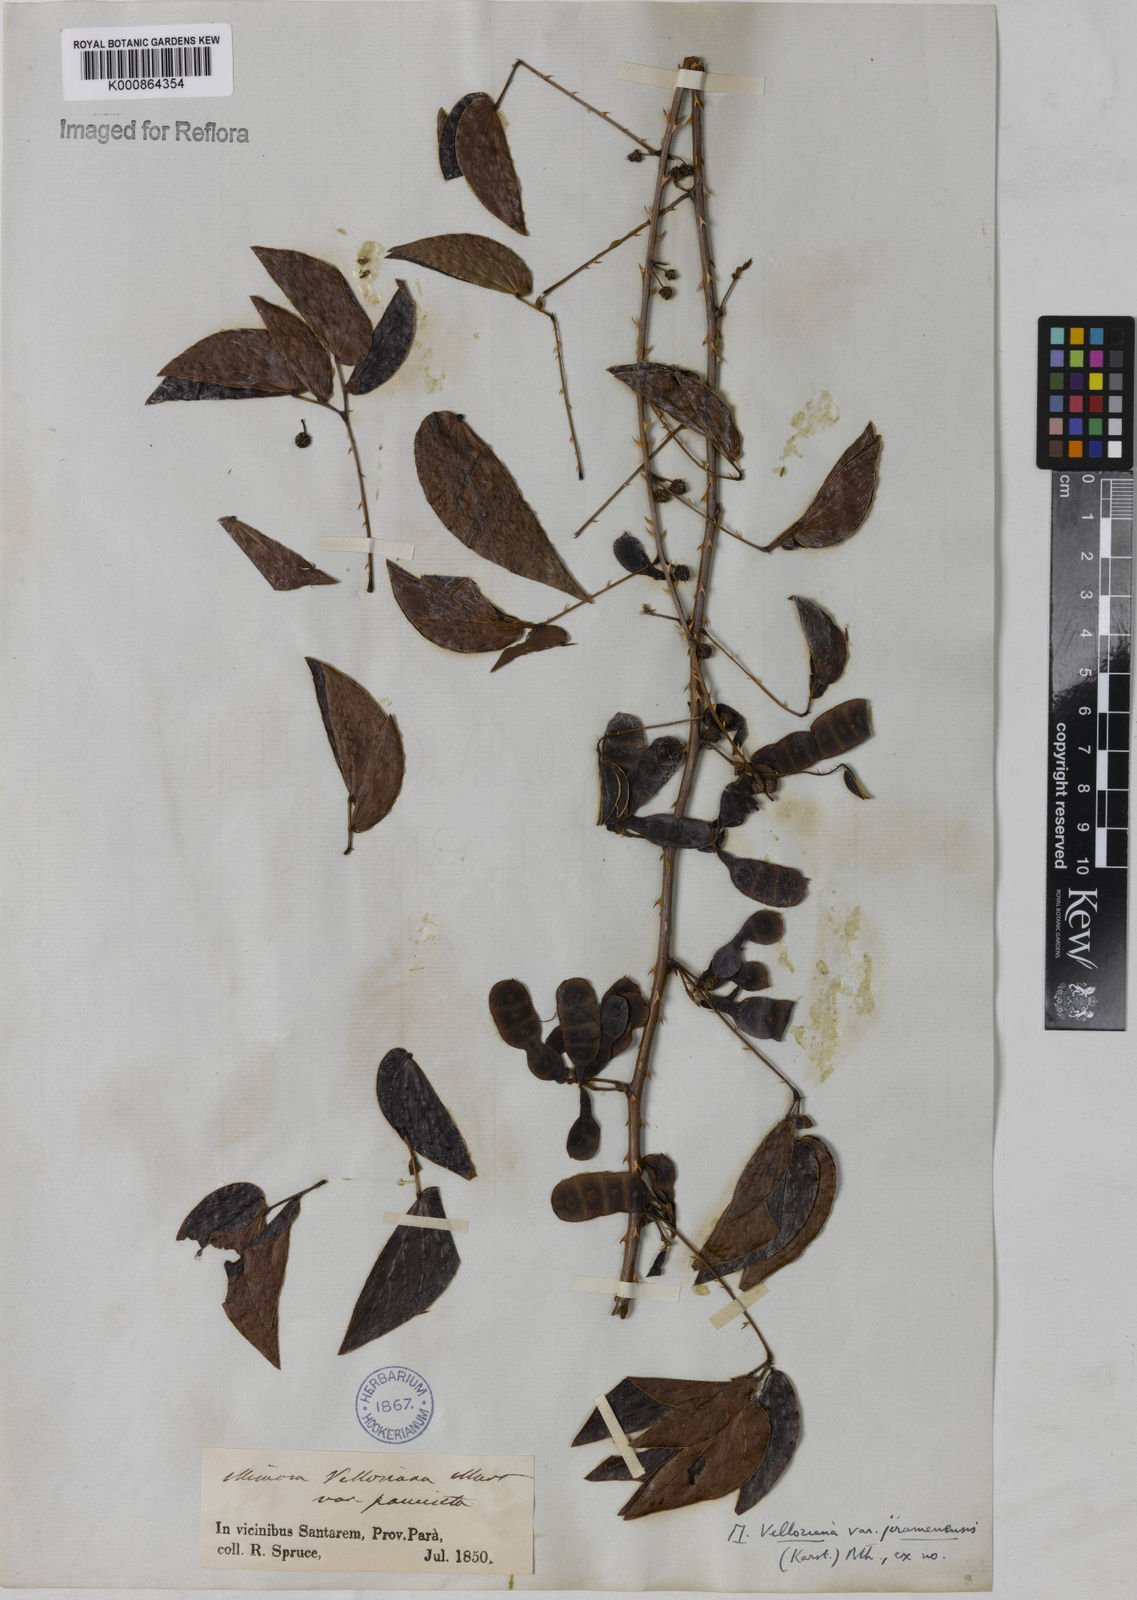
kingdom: Plantae
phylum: Tracheophyta
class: Magnoliopsida
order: Fabales
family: Fabaceae
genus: Mimosa
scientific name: Mimosa velloziana
